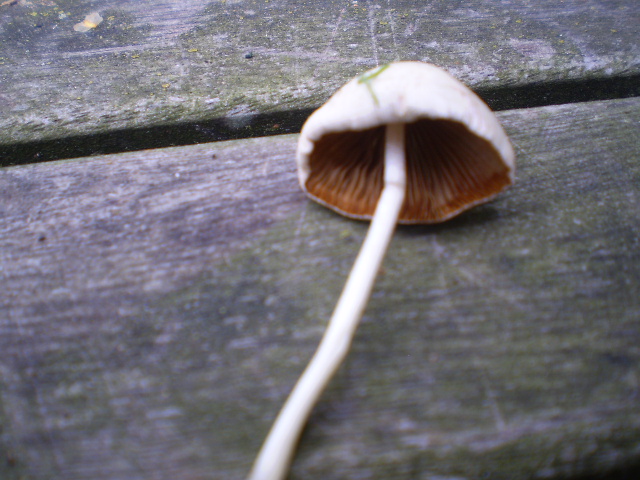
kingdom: Fungi
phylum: Basidiomycota
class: Agaricomycetes
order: Agaricales
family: Bolbitiaceae
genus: Conocybe
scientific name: Conocybe apala
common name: mælkehvid keglehat
